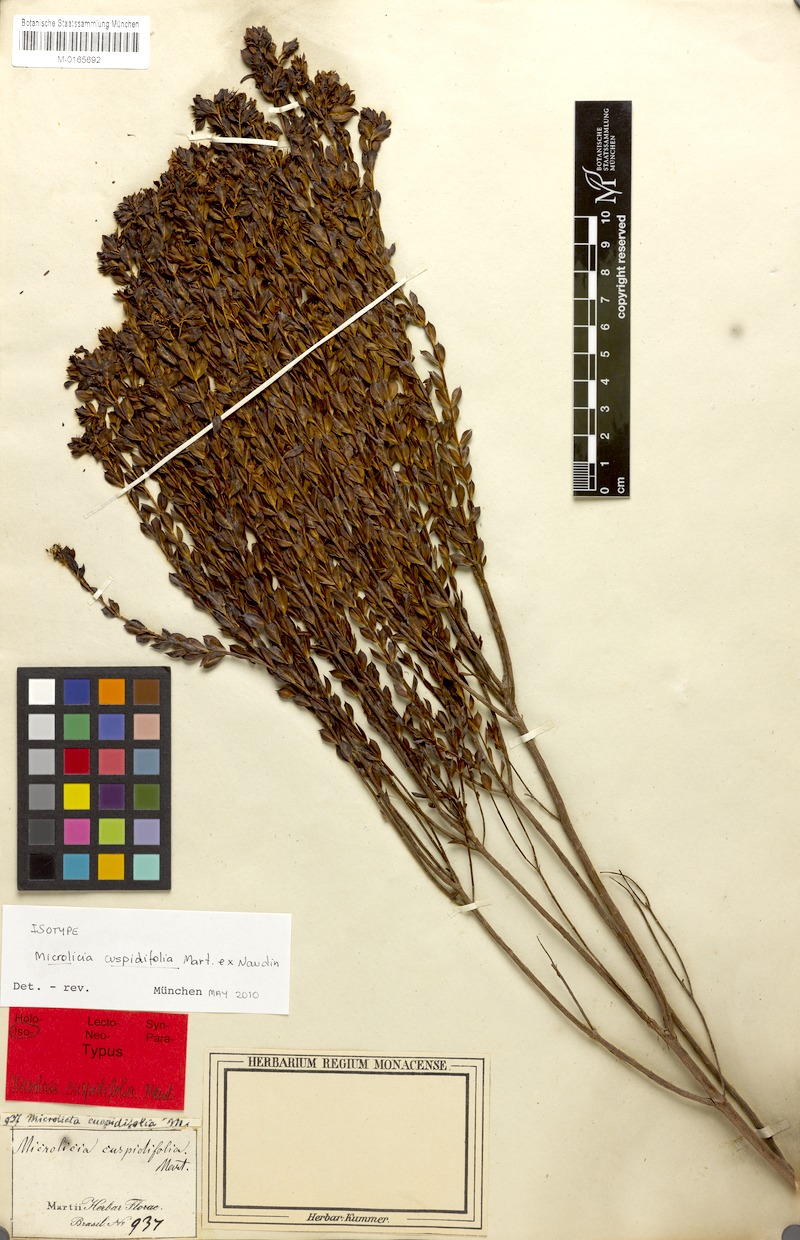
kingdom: Plantae
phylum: Tracheophyta
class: Magnoliopsida
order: Myrtales
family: Melastomataceae
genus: Microlicia
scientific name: Microlicia cuspidifolia
